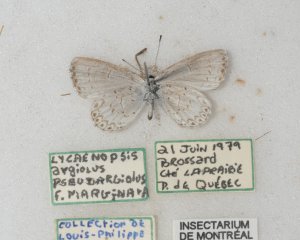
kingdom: Animalia
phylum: Arthropoda
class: Insecta
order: Lepidoptera
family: Lycaenidae
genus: Cyaniris
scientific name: Cyaniris neglecta
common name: Summer Azure
